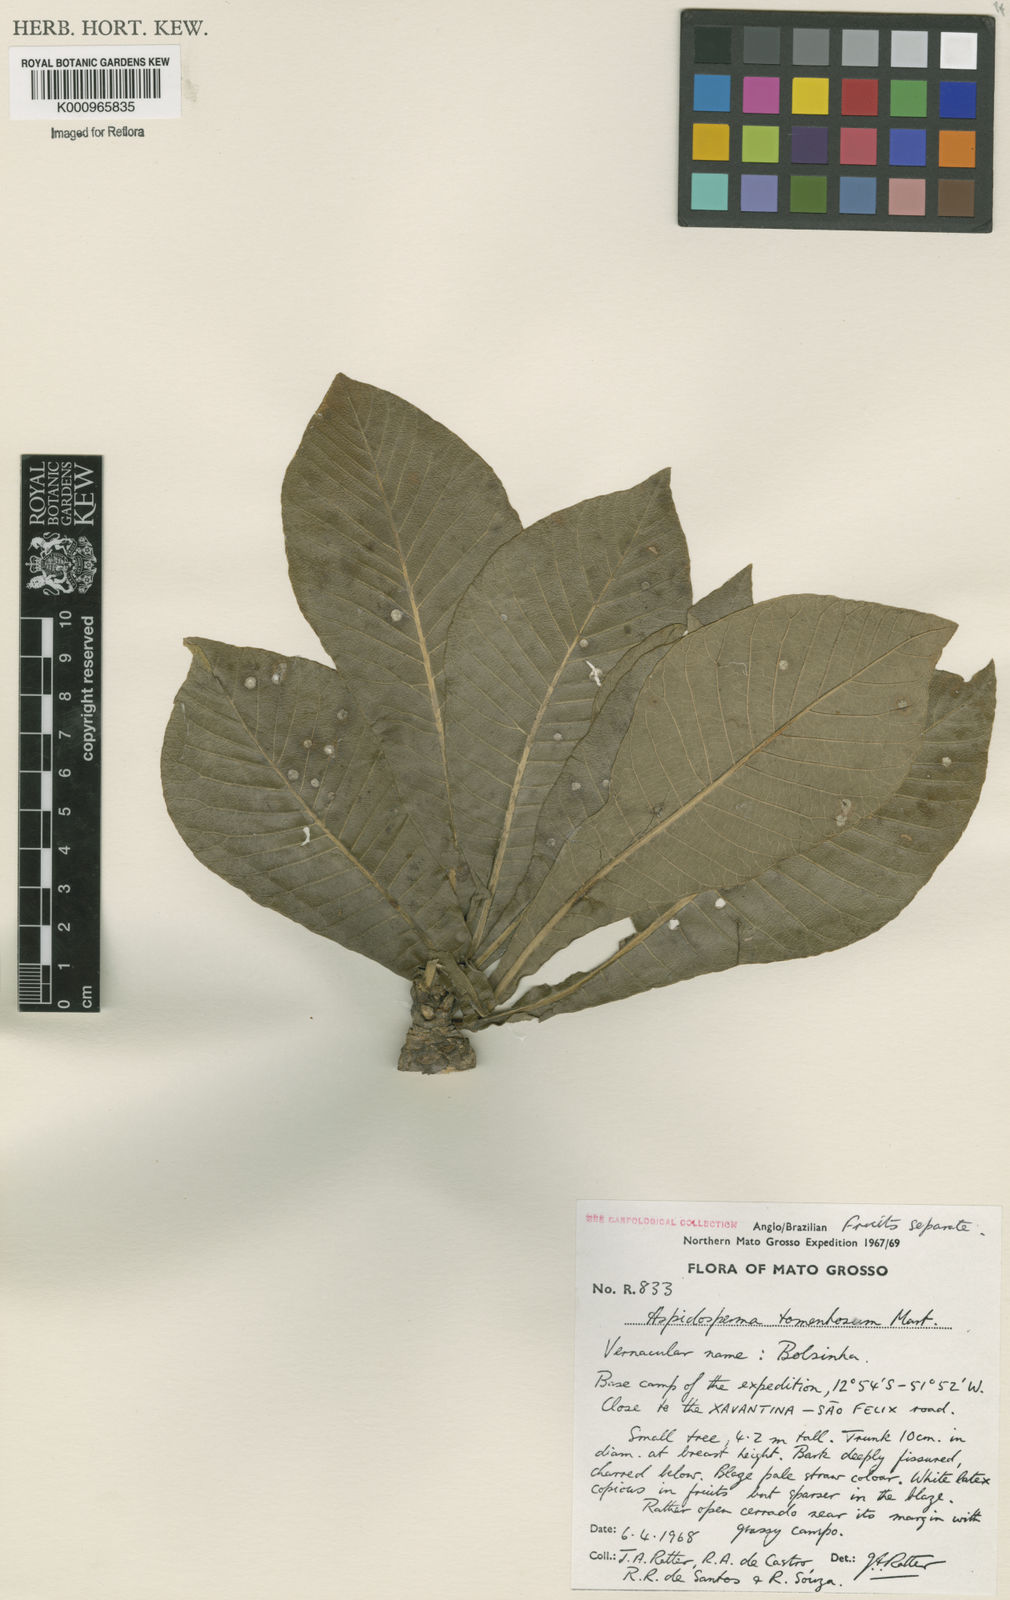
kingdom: Plantae
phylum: Tracheophyta
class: Magnoliopsida
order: Gentianales
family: Apocynaceae
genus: Aspidosperma
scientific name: Aspidosperma tomentosum
